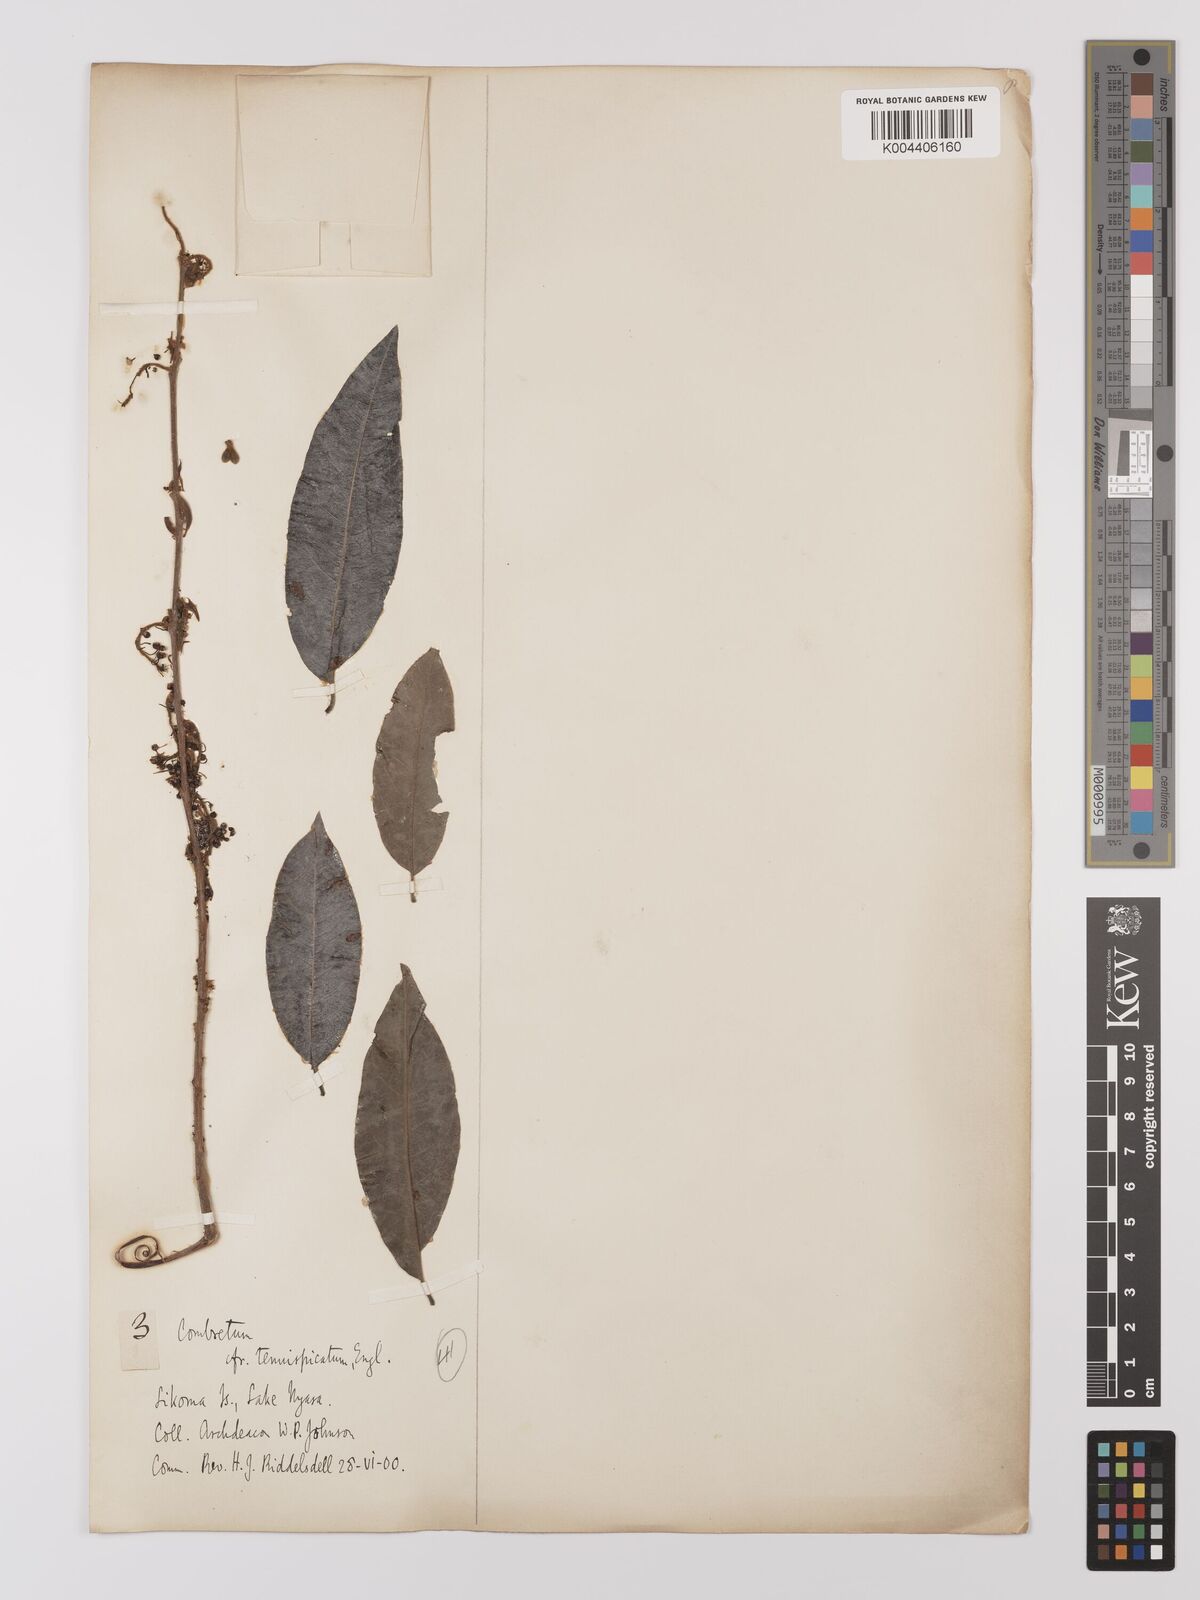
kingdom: Plantae
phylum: Tracheophyta
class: Magnoliopsida
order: Myrtales
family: Combretaceae
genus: Combretum
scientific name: Combretum
